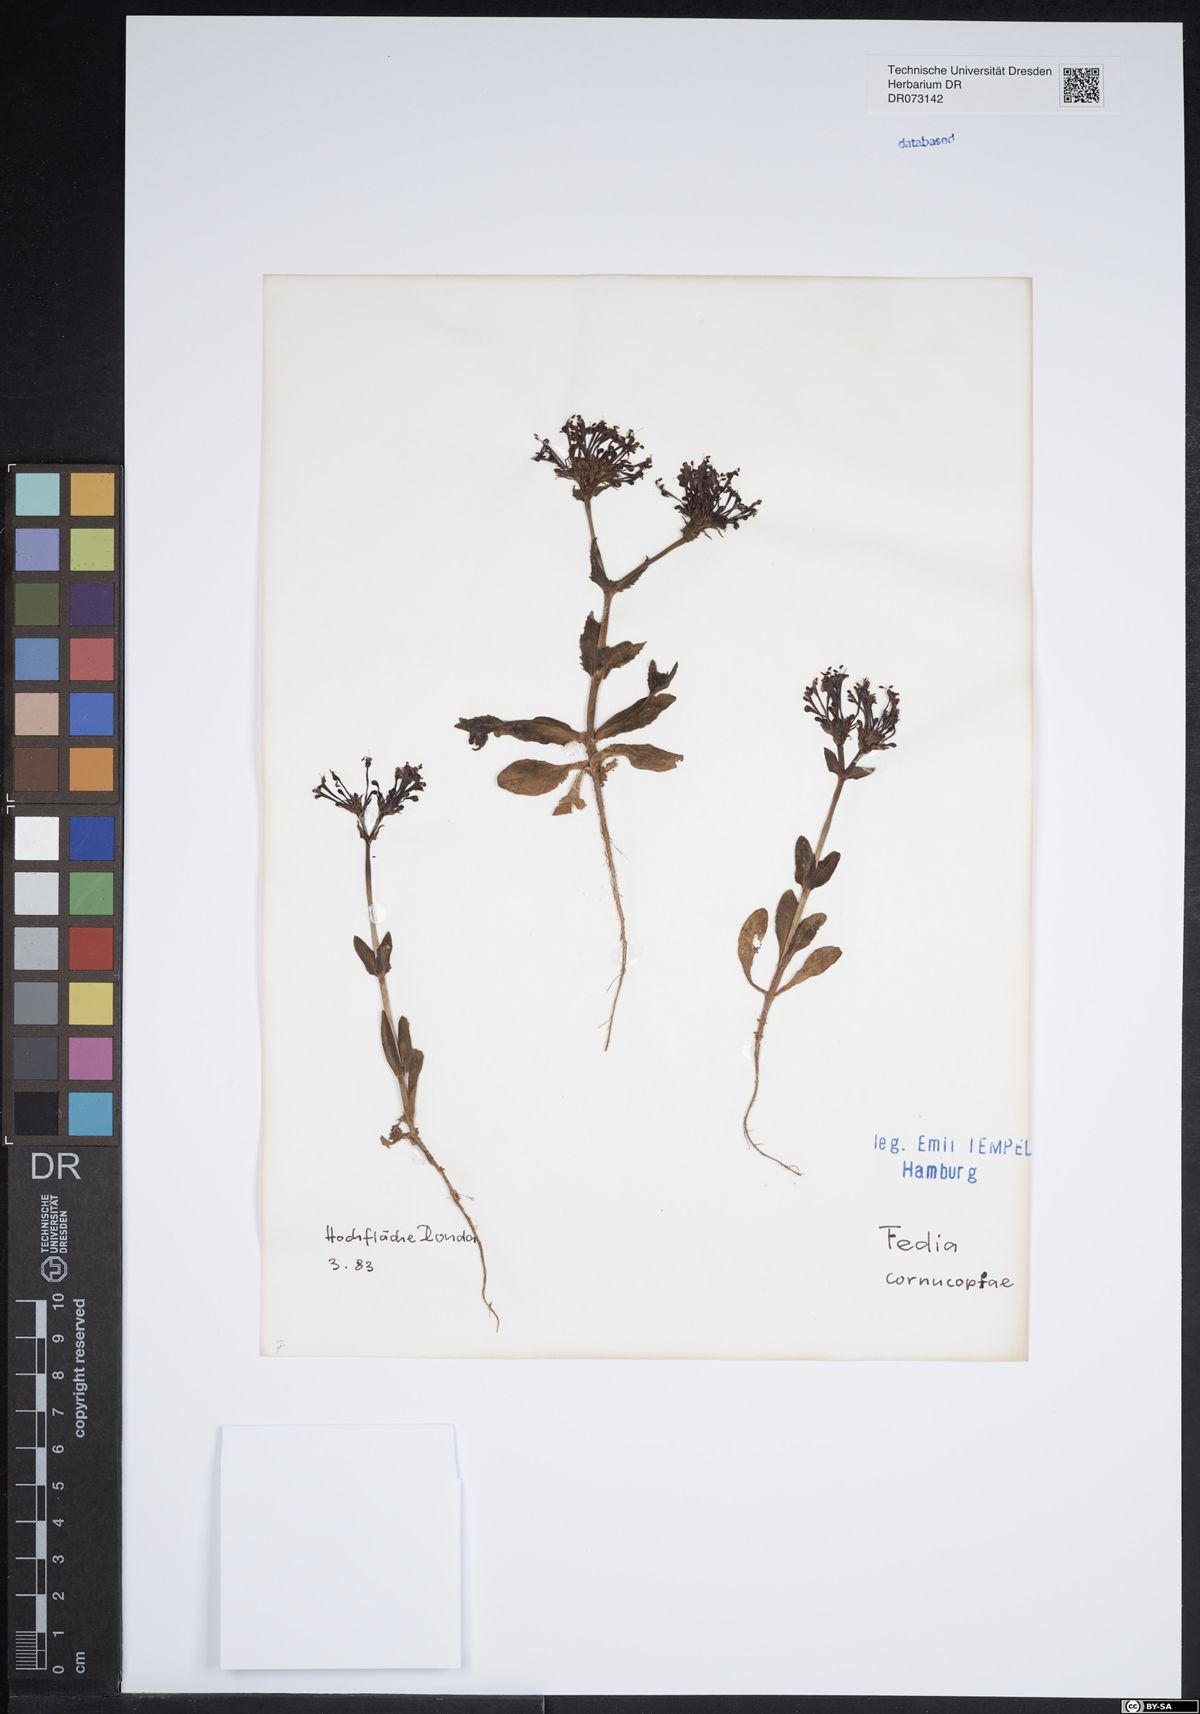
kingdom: Plantae
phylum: Tracheophyta
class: Magnoliopsida
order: Dipsacales
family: Caprifoliaceae
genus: Fedia
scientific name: Fedia cornucopiae
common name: Horn-of-plenty
